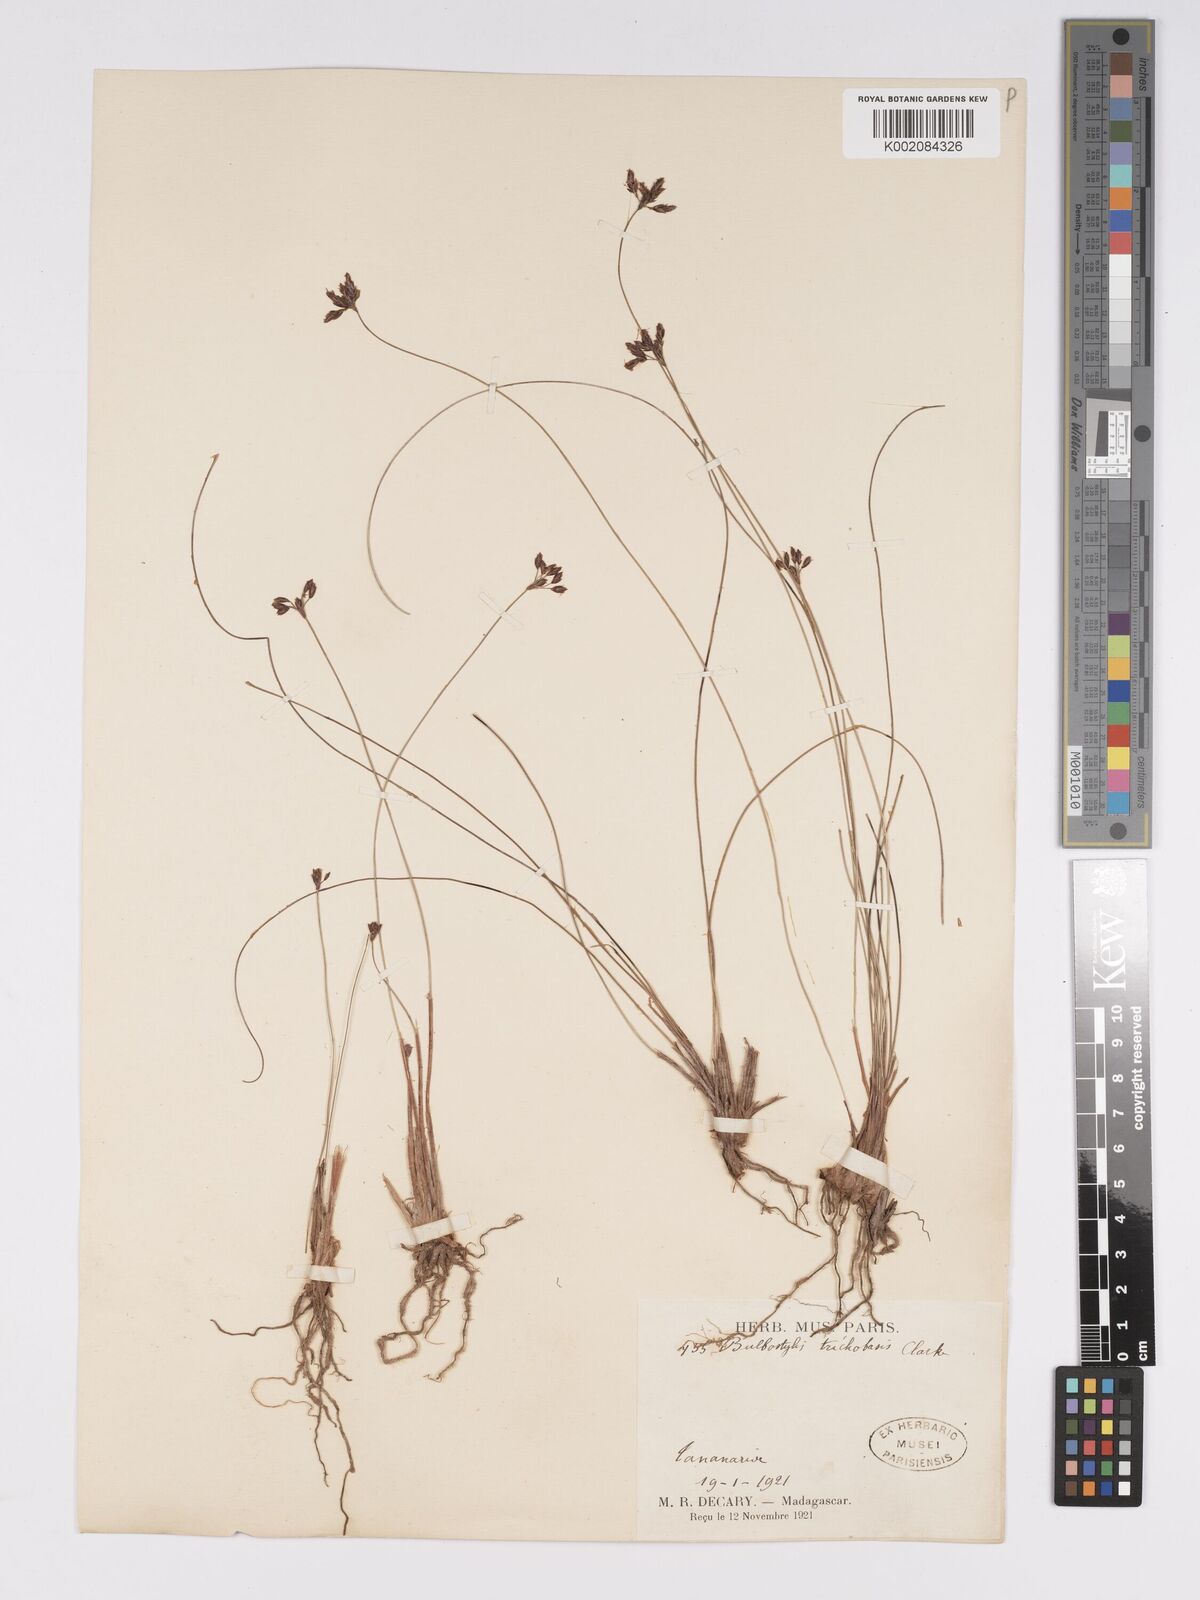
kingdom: Plantae
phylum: Tracheophyta
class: Liliopsida
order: Poales
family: Cyperaceae
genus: Bulbostylis
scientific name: Bulbostylis trichobasis
